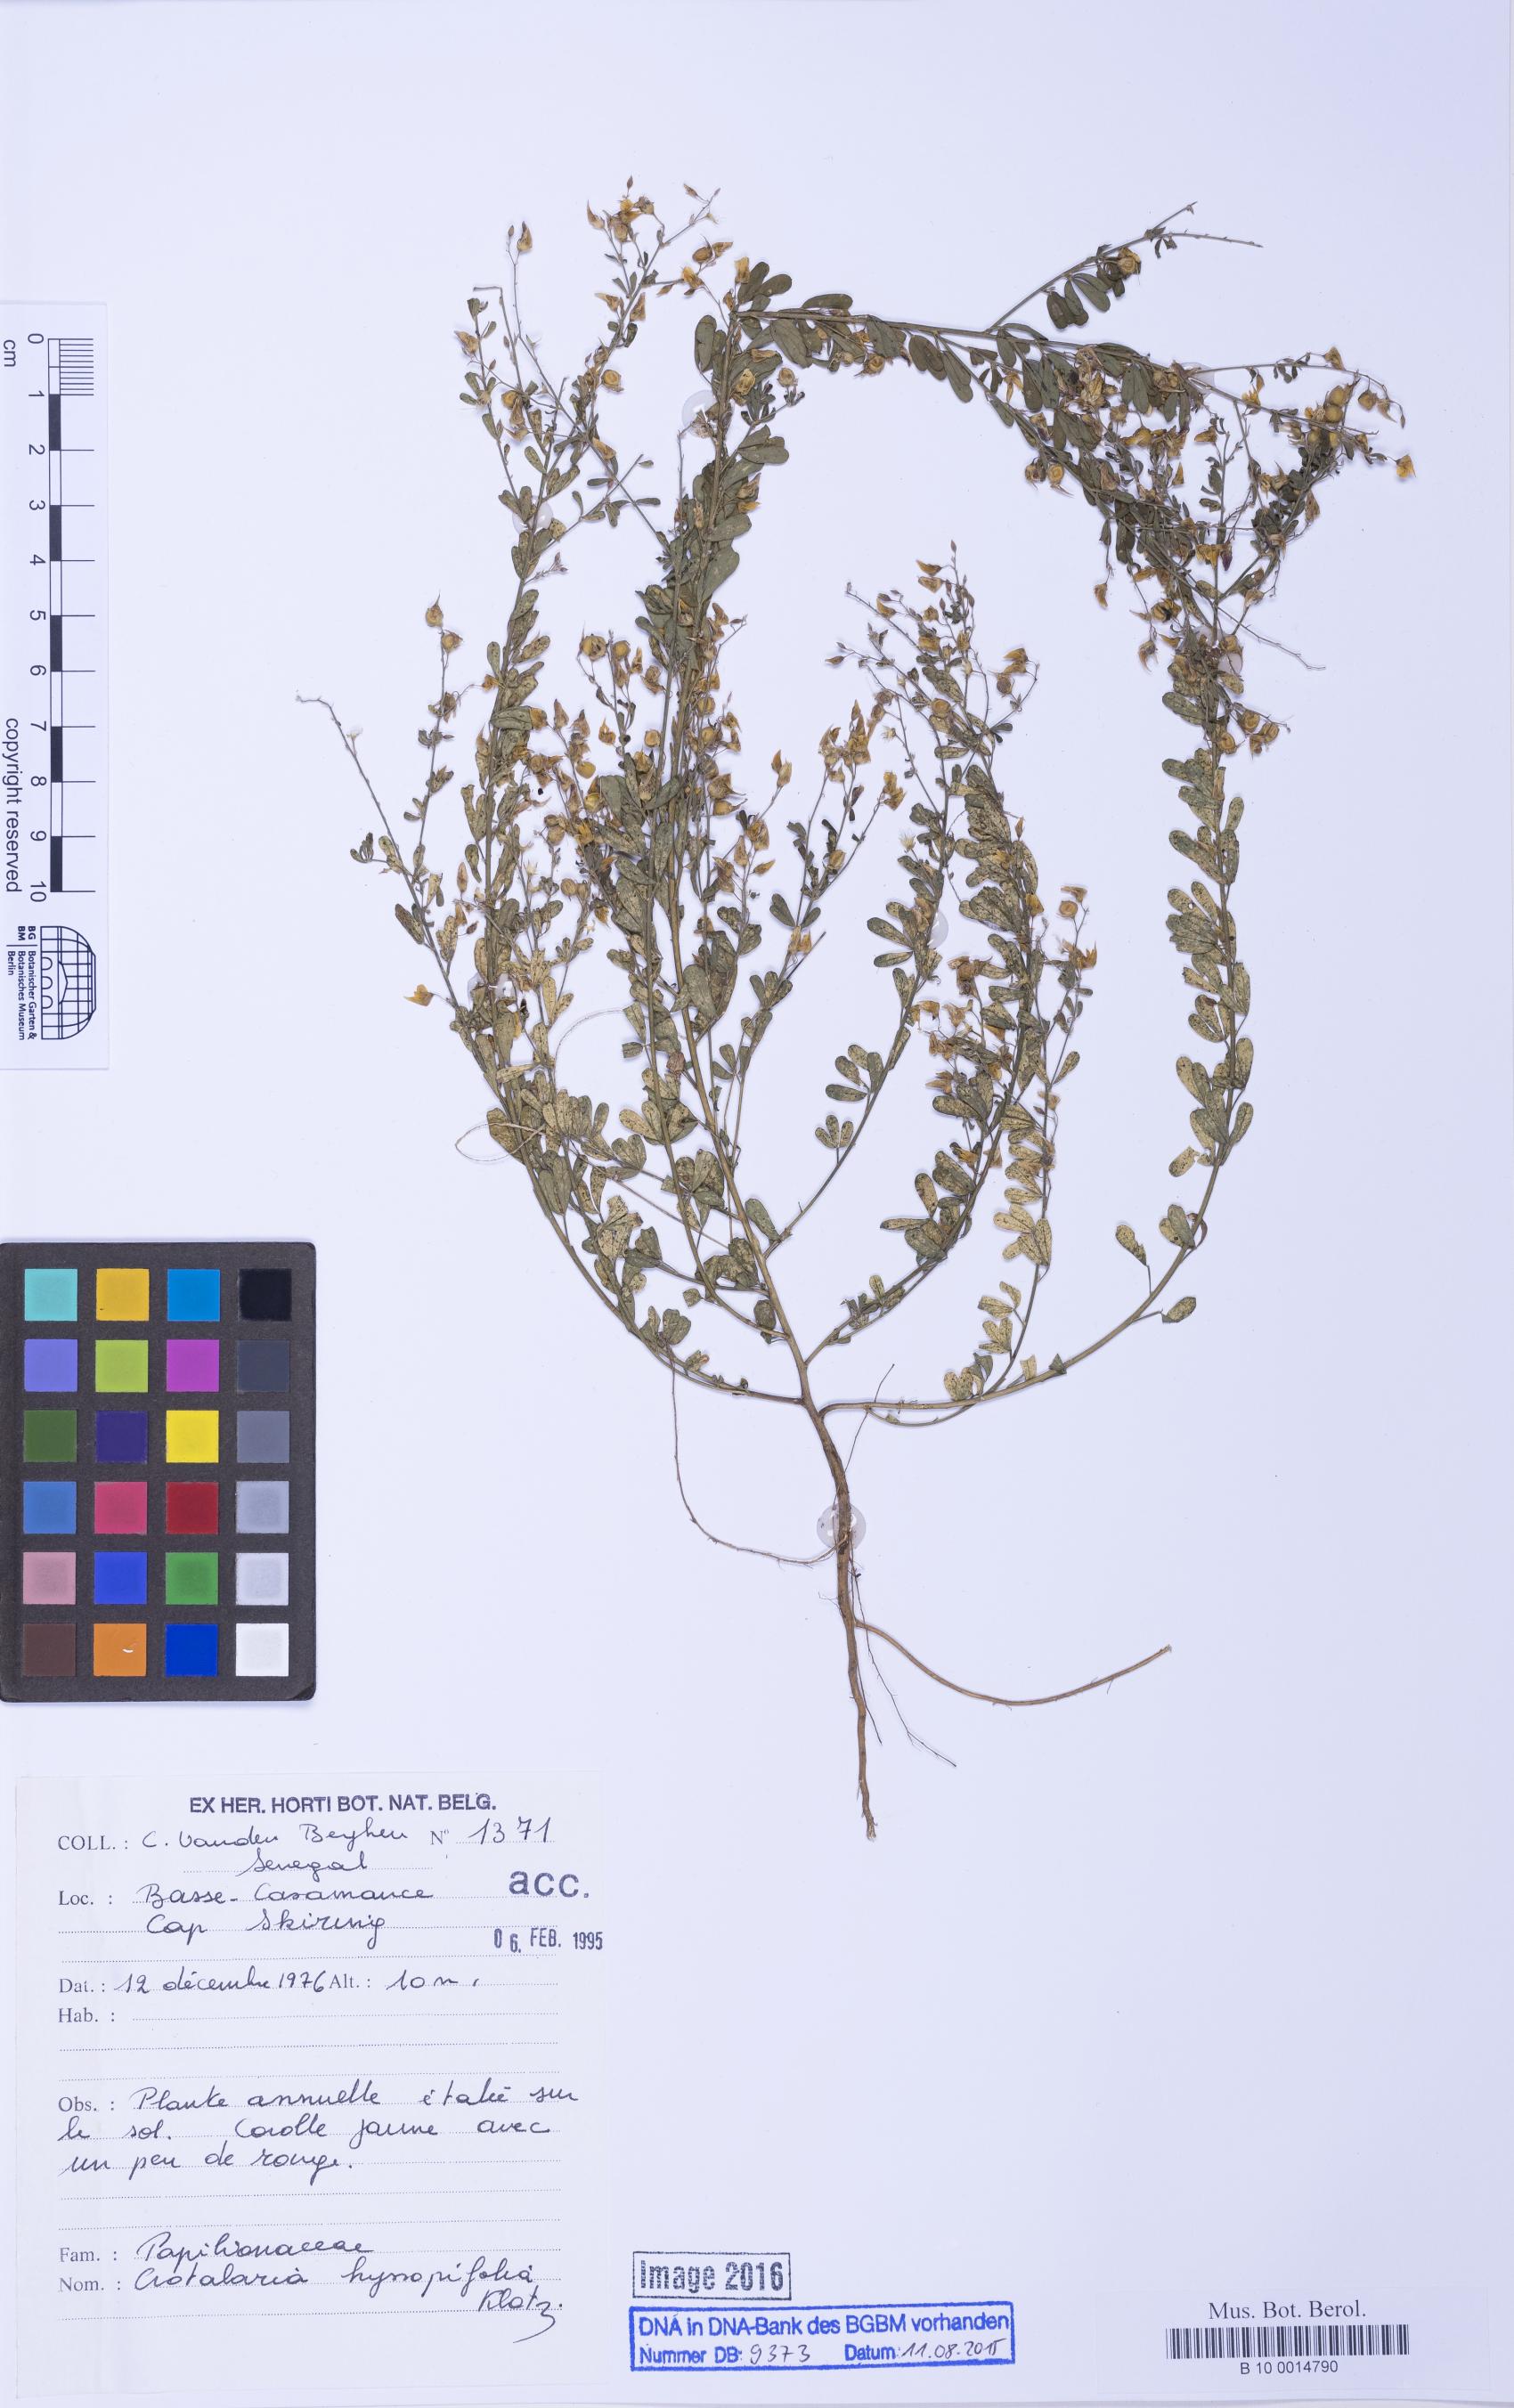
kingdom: Plantae
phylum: Tracheophyta
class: Magnoliopsida
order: Fabales
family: Fabaceae
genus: Crotalaria
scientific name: Crotalaria hyssopifolia
